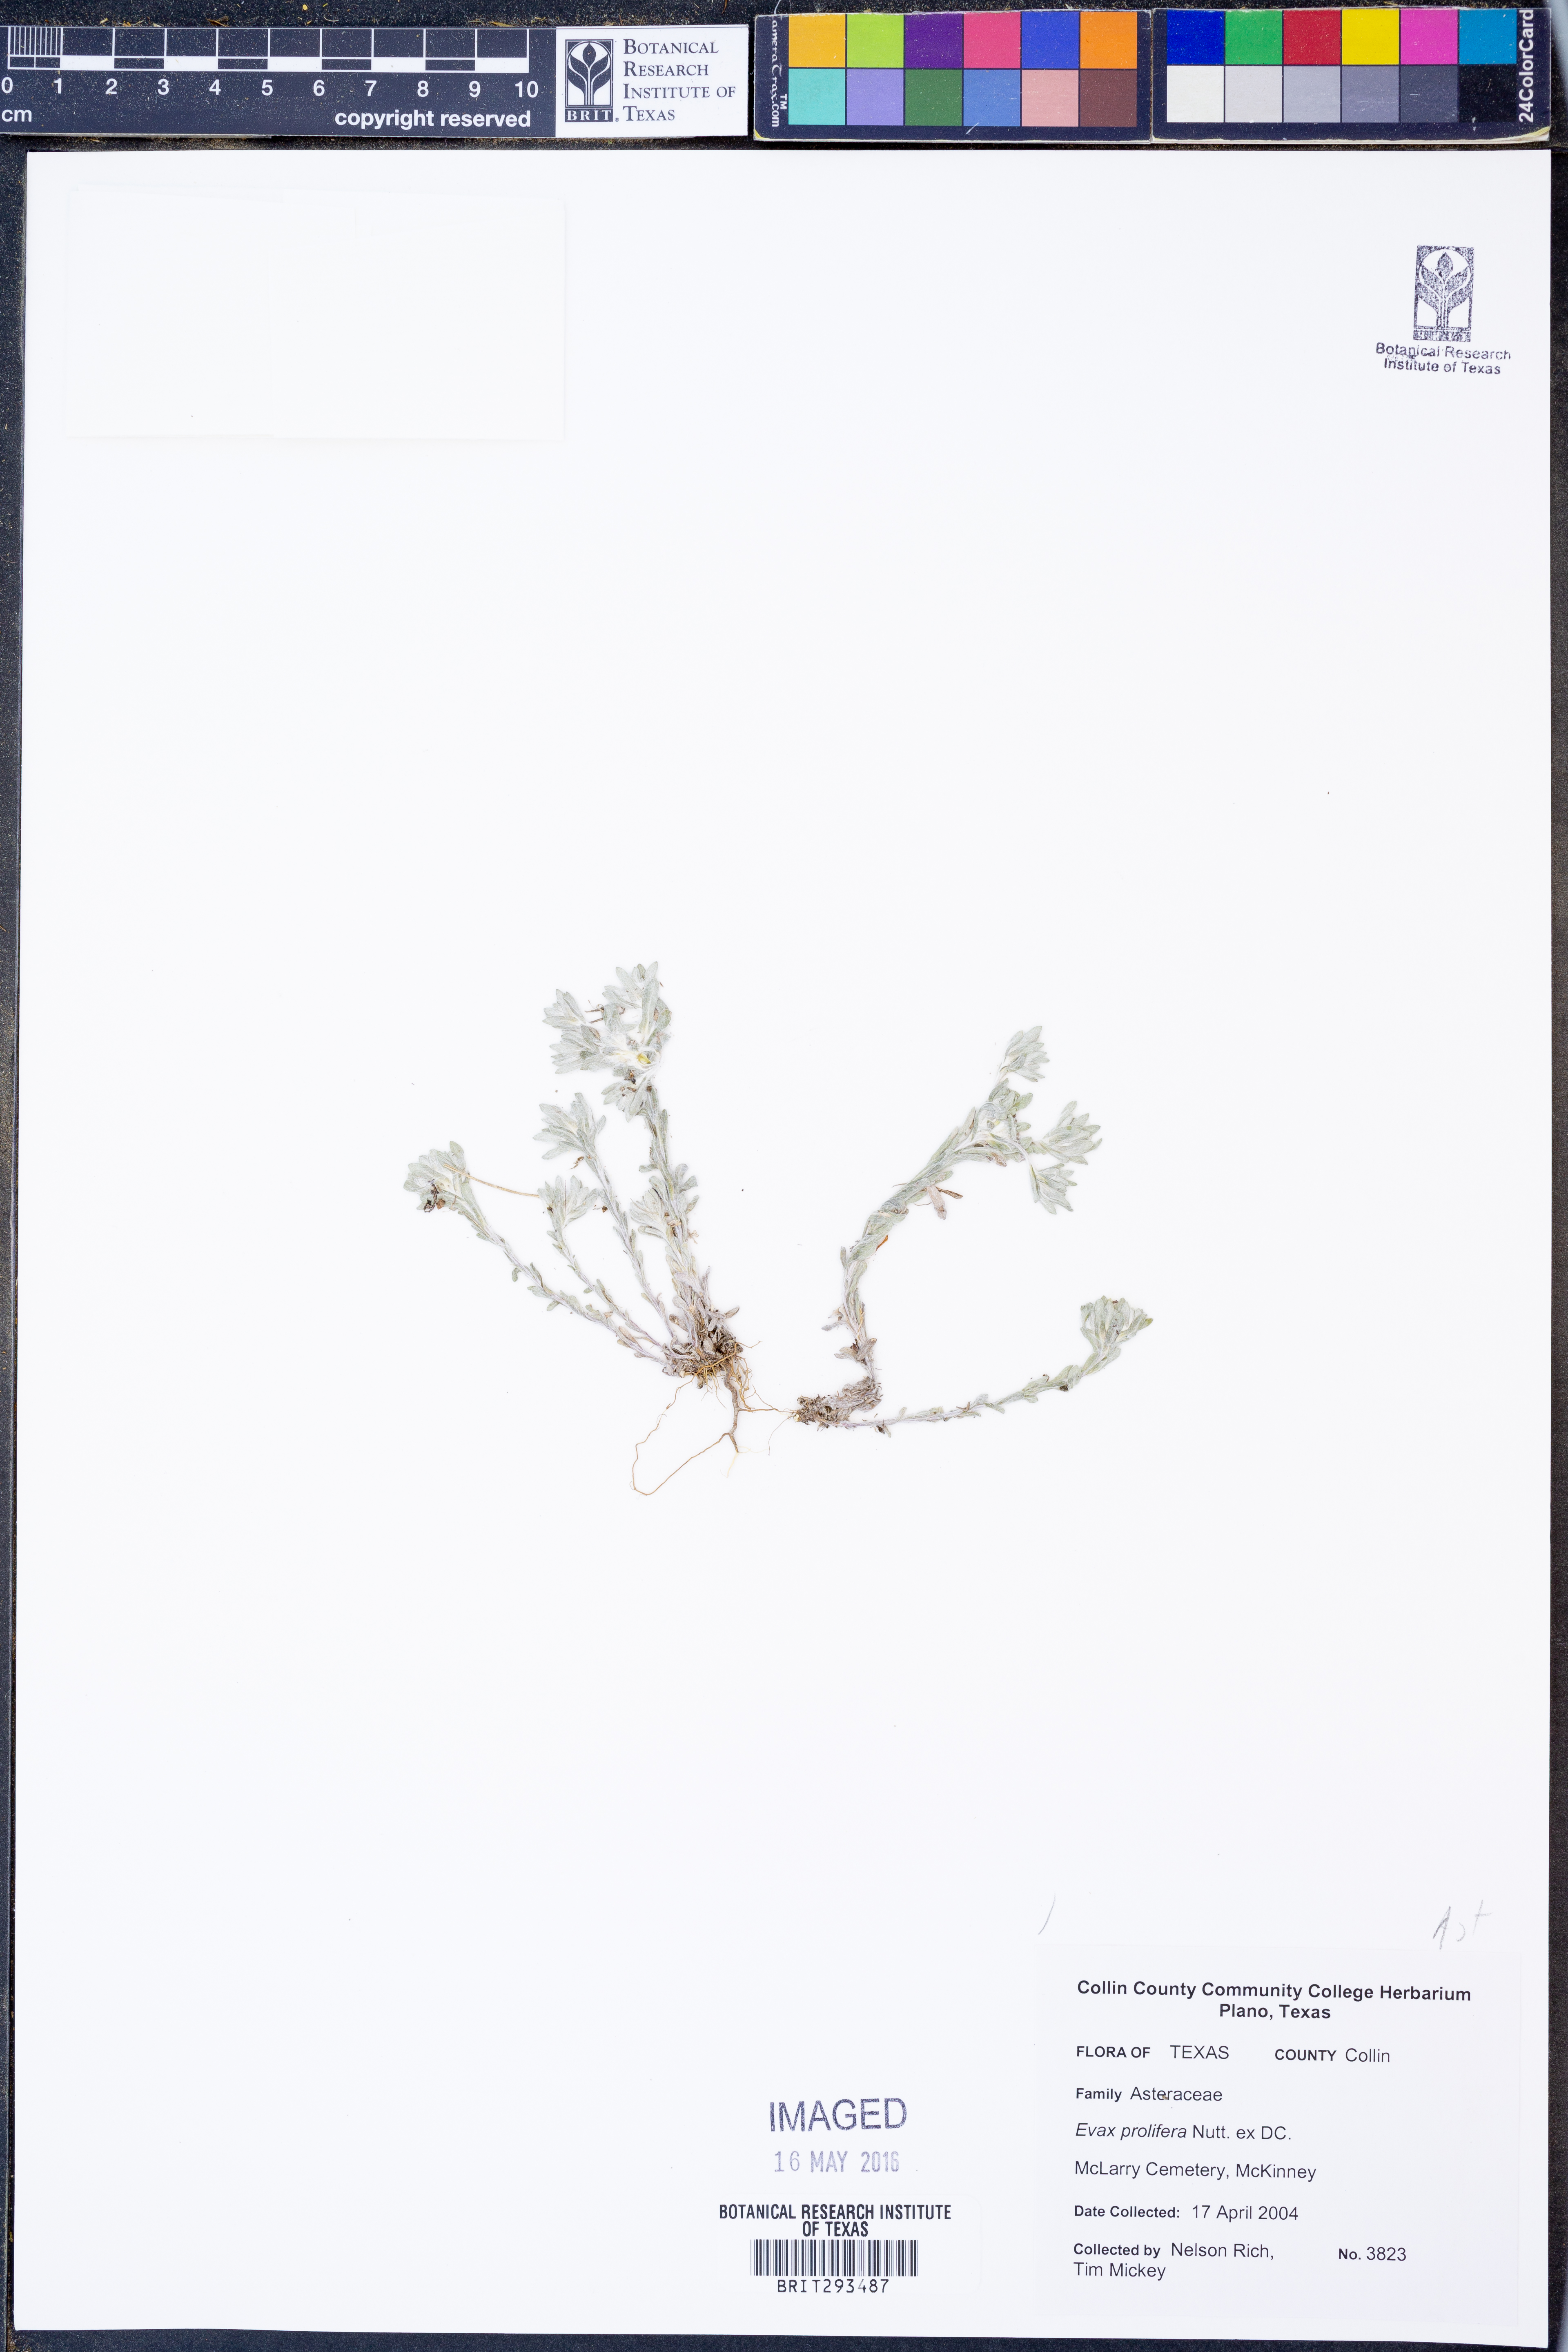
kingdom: Plantae
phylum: Tracheophyta
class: Magnoliopsida
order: Asterales
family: Asteraceae
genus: Diaperia
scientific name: Diaperia prolifera
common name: Big-head rabbit-tobacco
